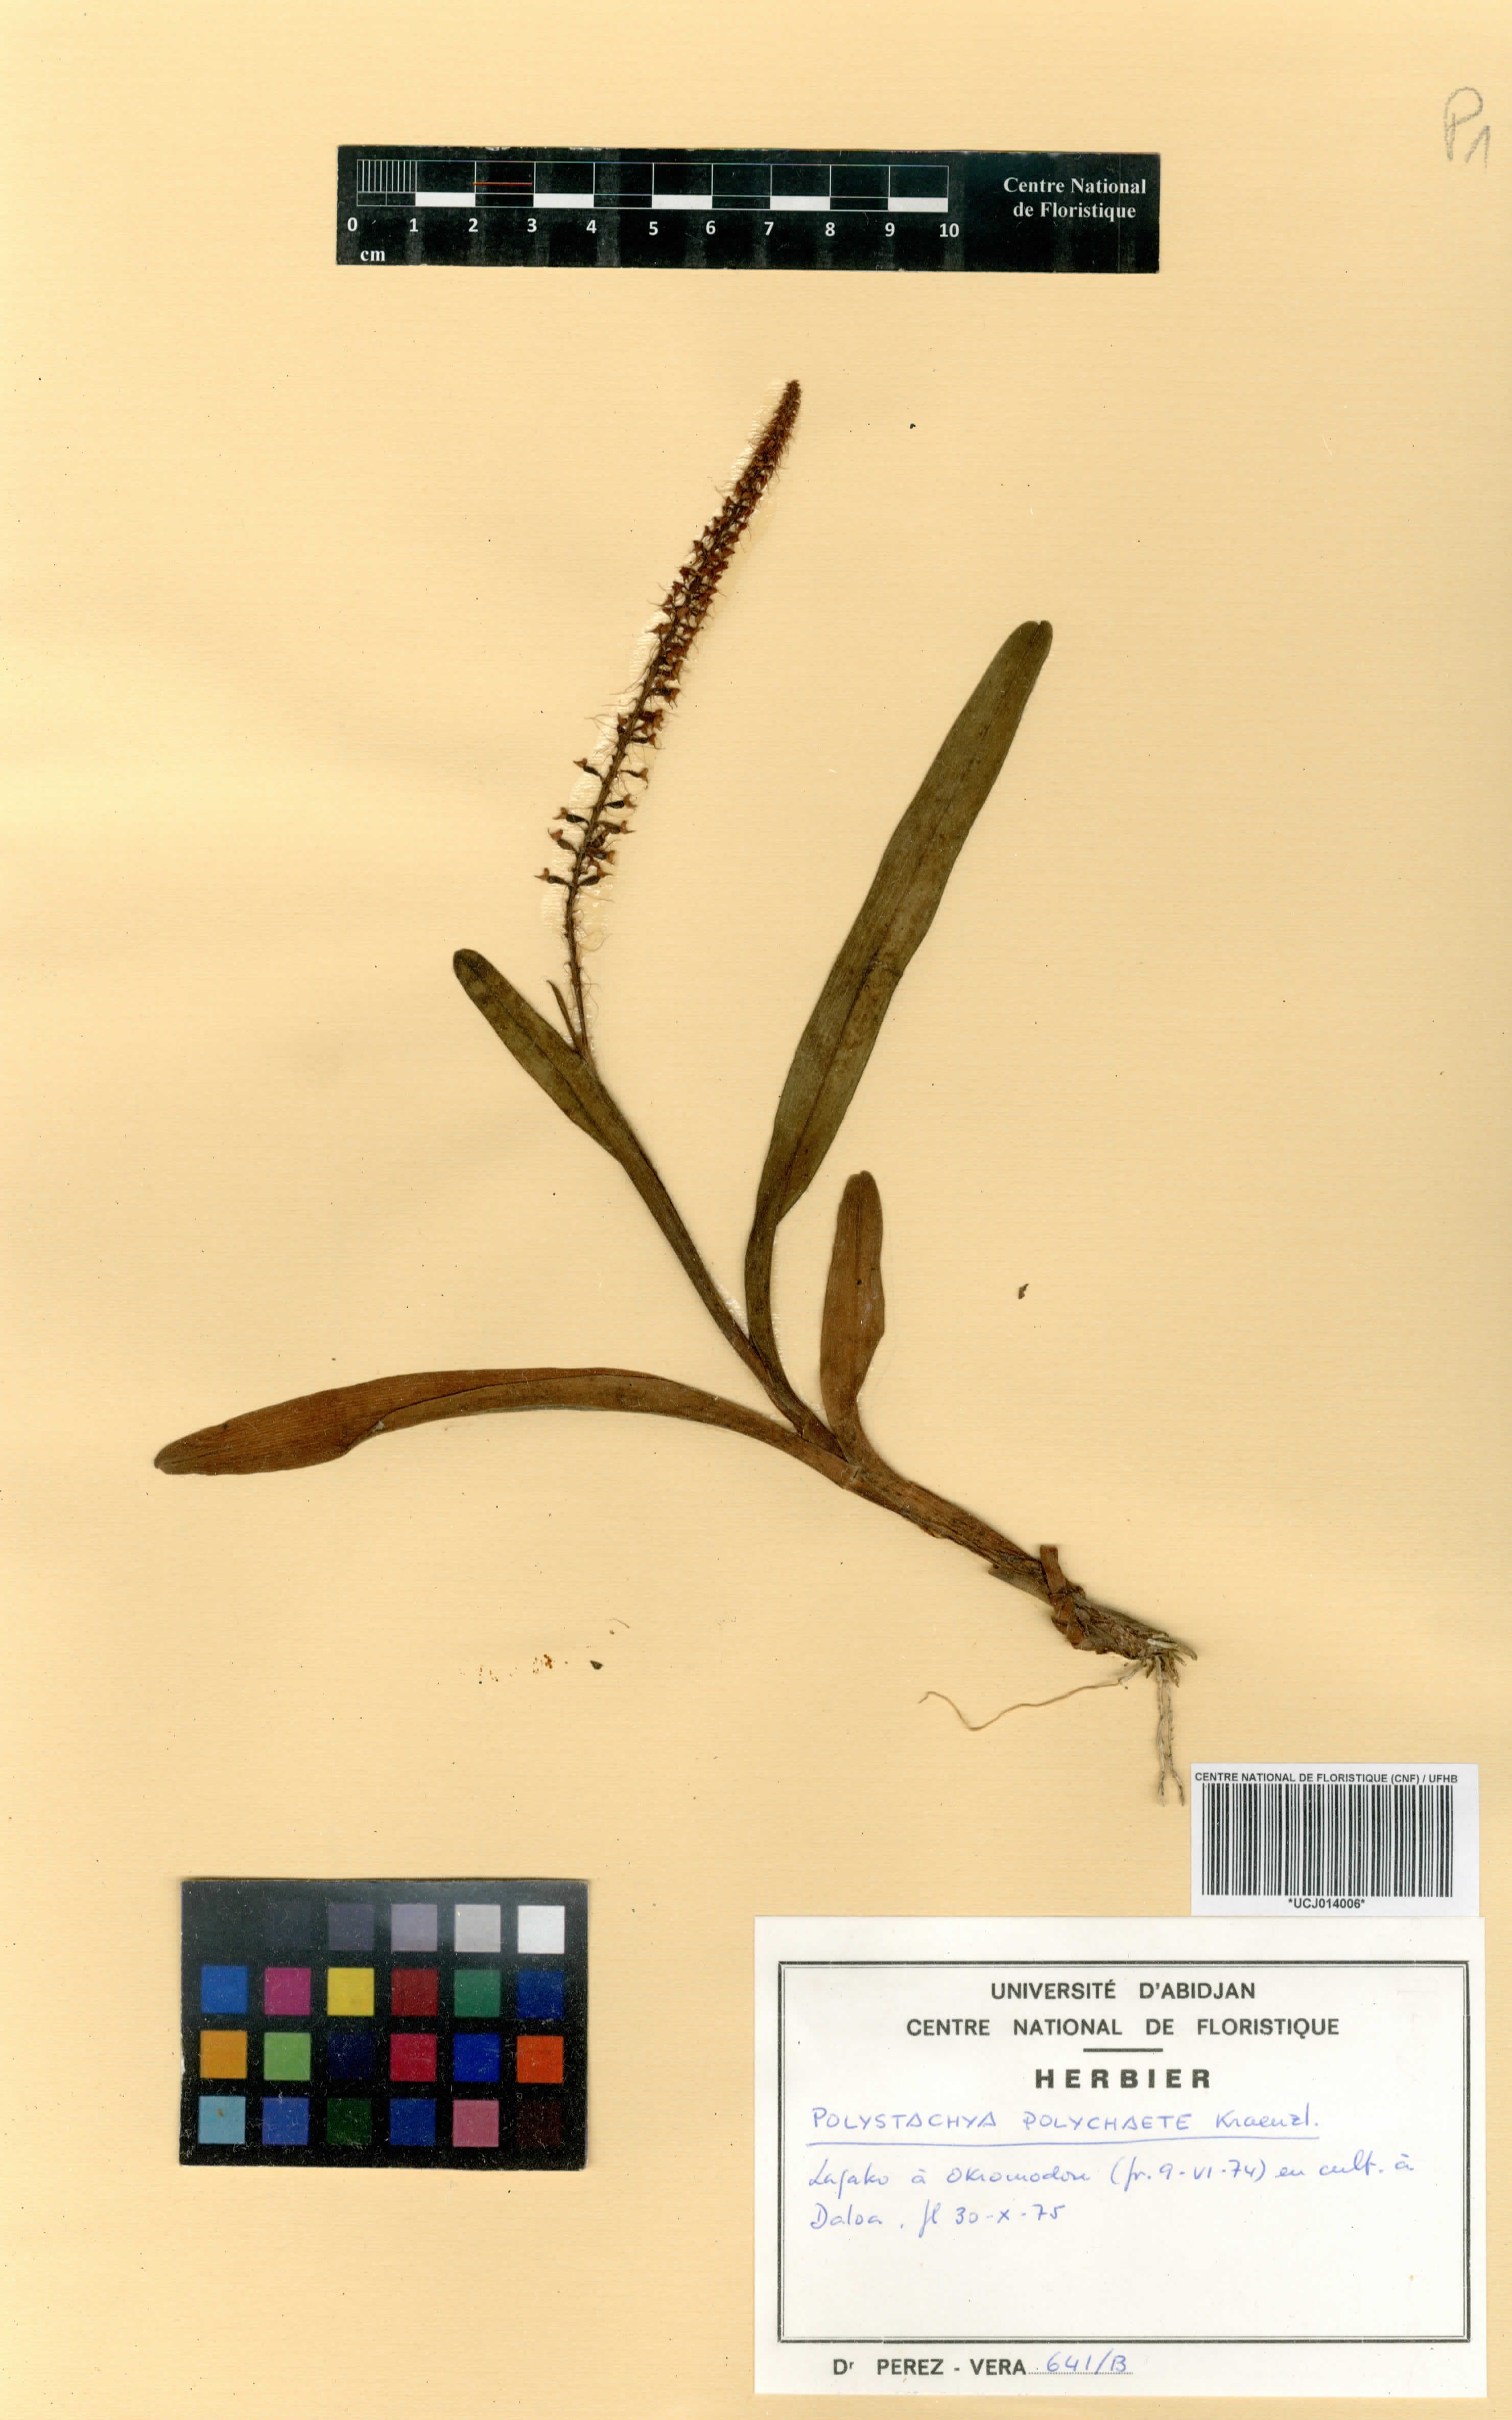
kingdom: Plantae
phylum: Tracheophyta
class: Liliopsida
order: Asparagales
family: Orchidaceae
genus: Polystachya
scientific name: Polystachya polychaete
